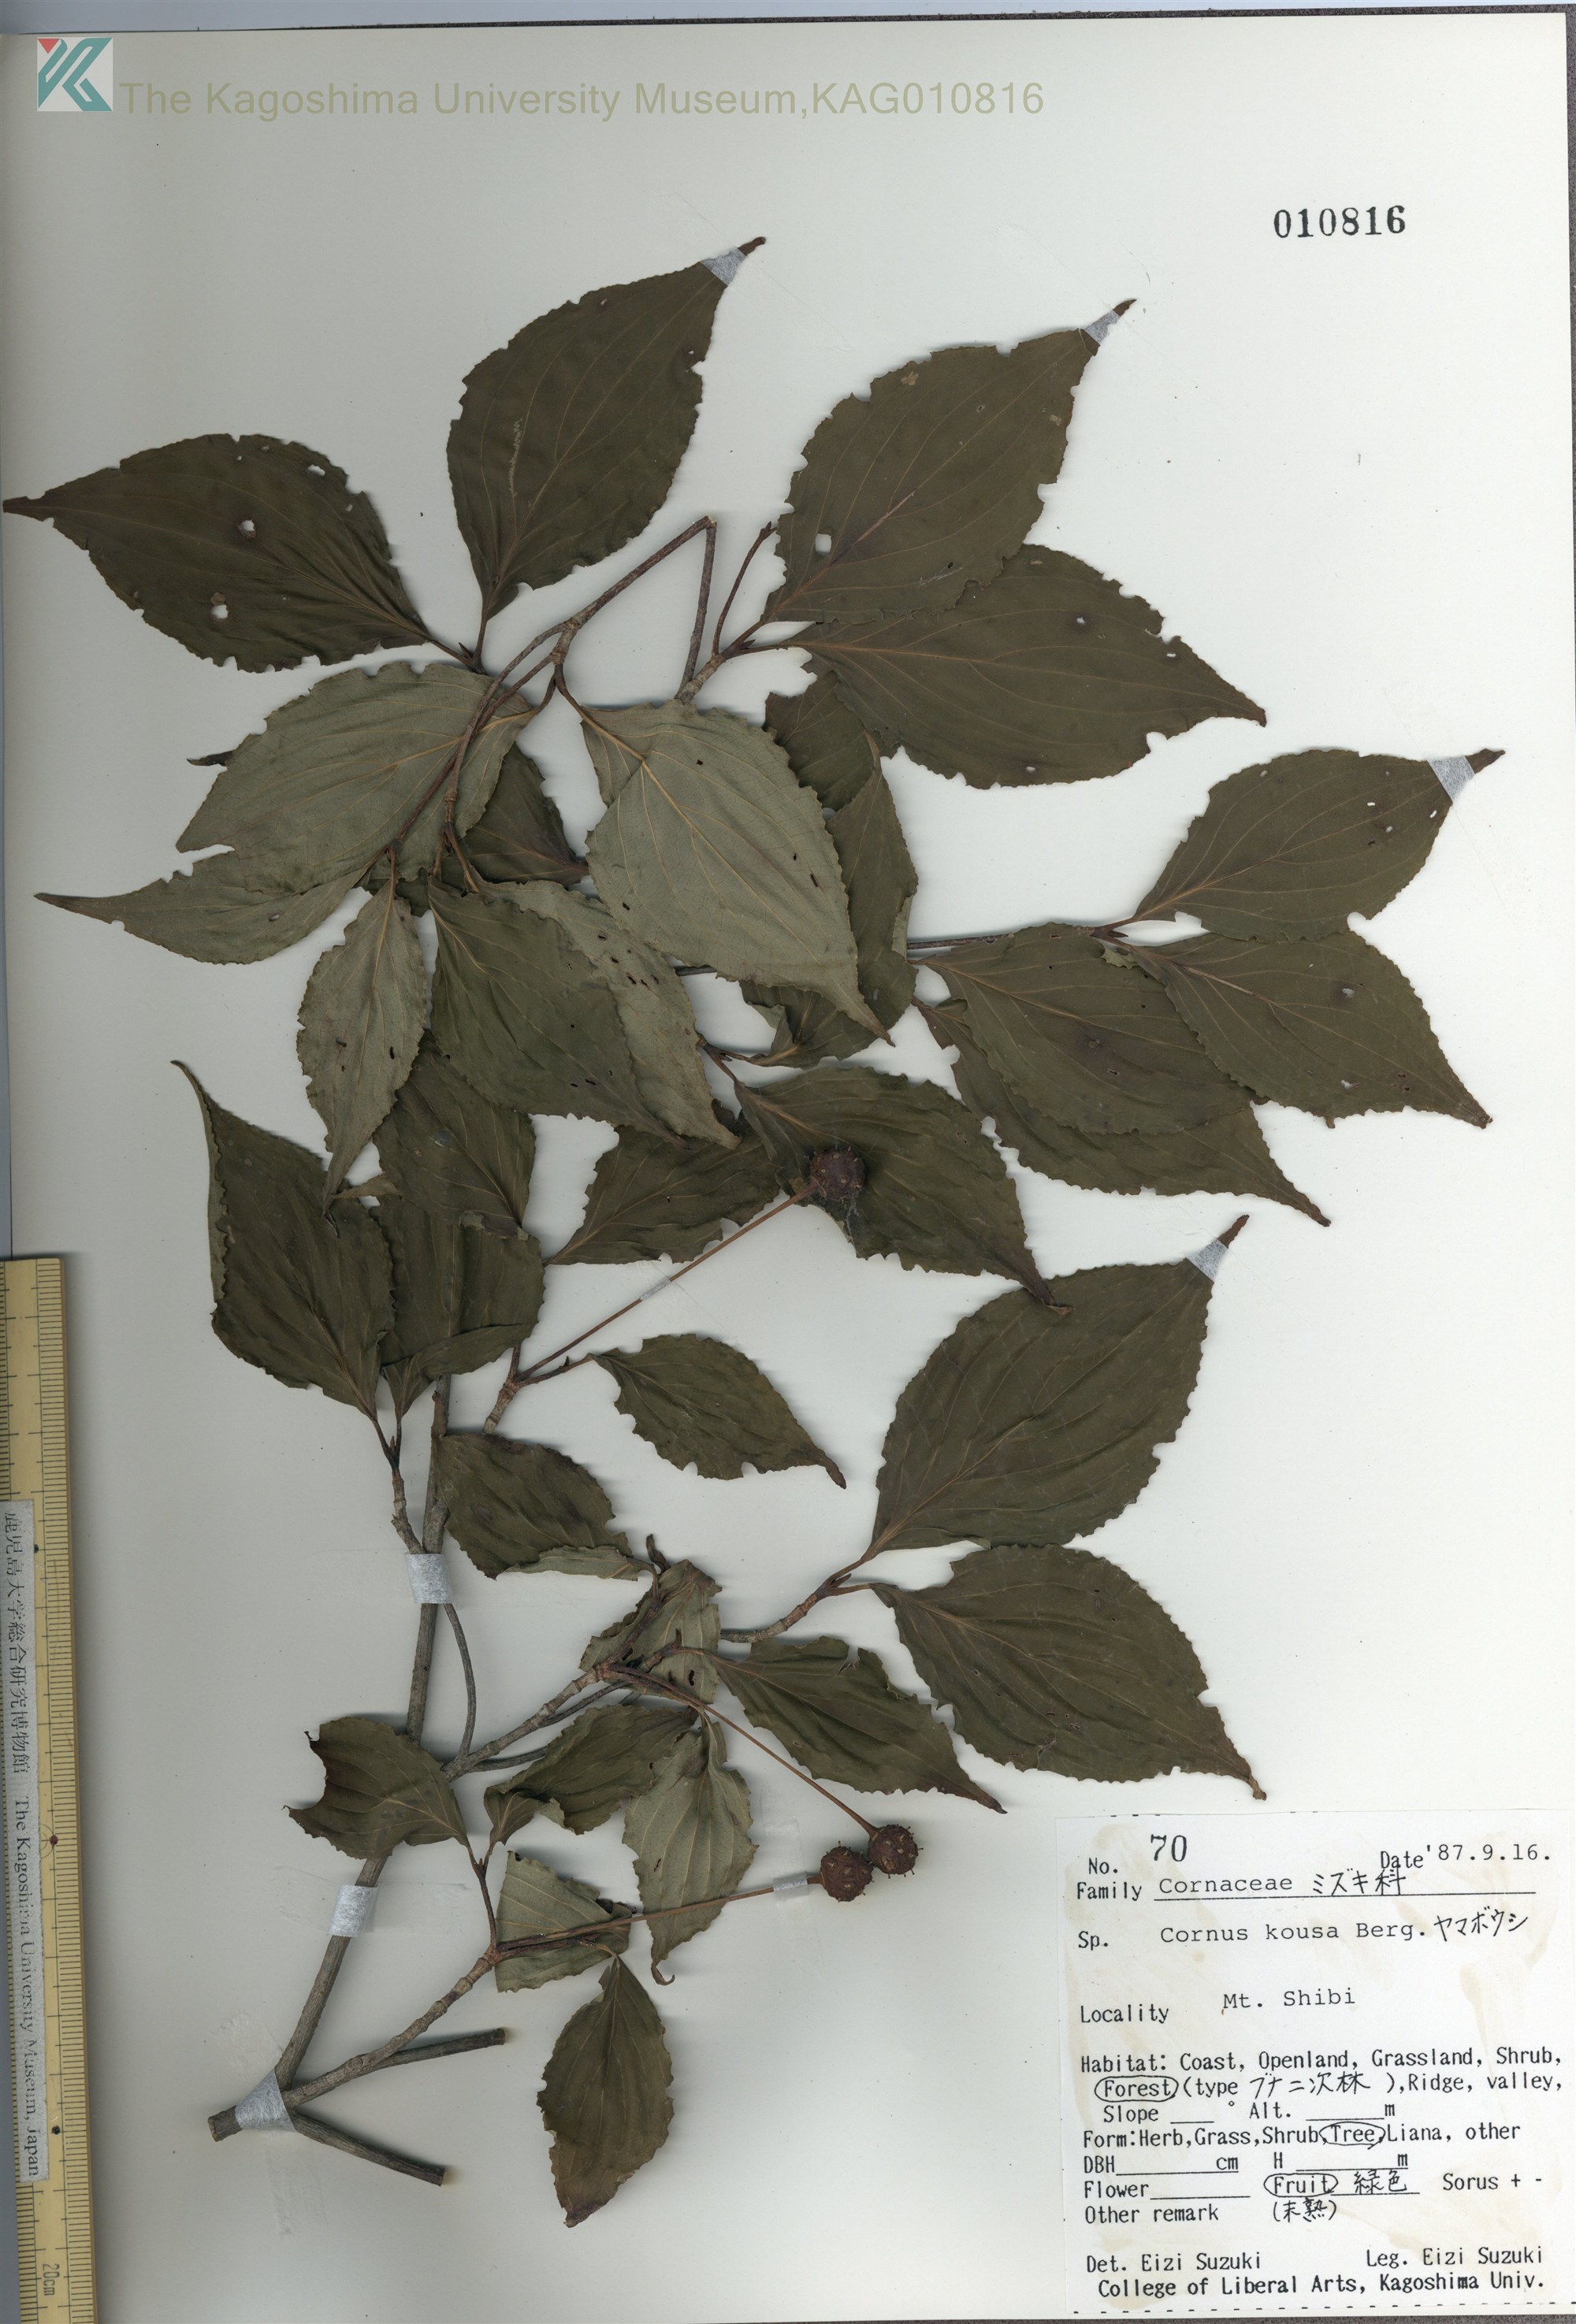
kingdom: Plantae
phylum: Tracheophyta
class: Magnoliopsida
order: Cornales
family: Cornaceae
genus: Cornus
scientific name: Cornus kousa
